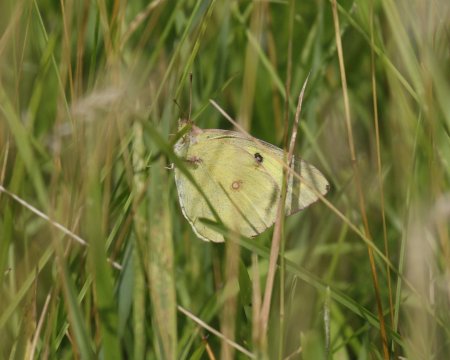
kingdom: Animalia
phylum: Arthropoda
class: Insecta
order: Lepidoptera
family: Pieridae
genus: Colias
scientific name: Colias philodice
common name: Clouded Sulphur
